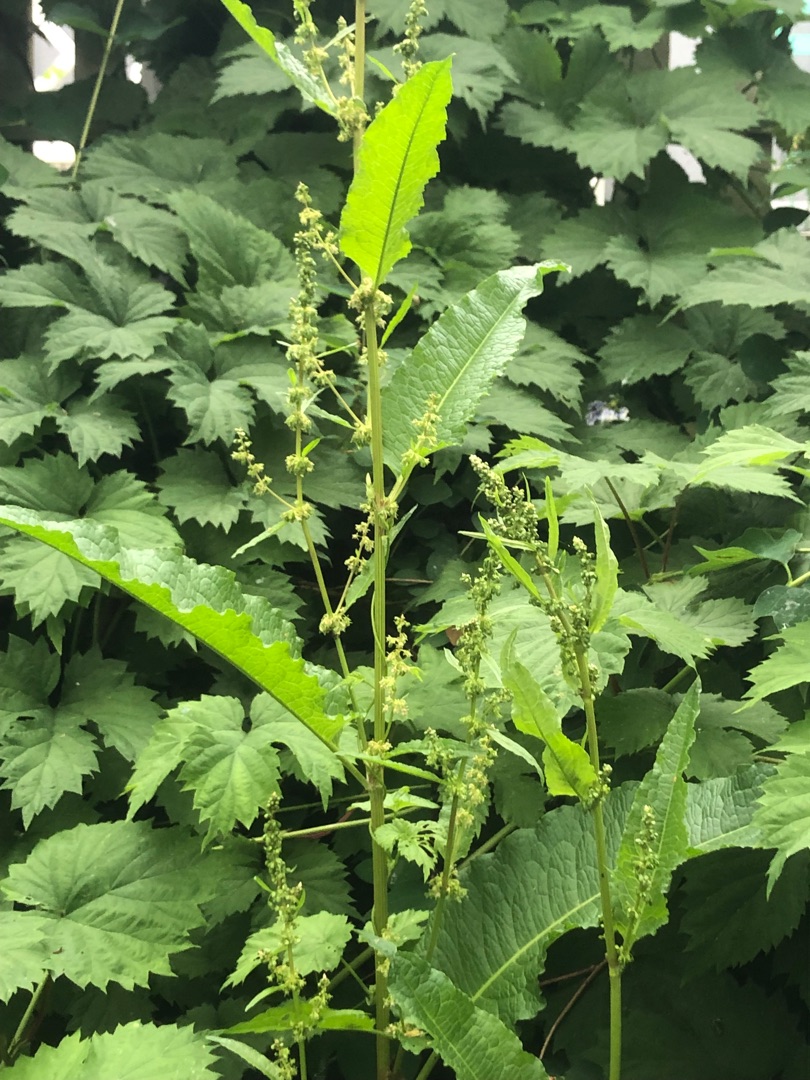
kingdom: Plantae
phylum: Tracheophyta
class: Magnoliopsida
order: Caryophyllales
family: Polygonaceae
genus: Rumex
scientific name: Rumex obtusifolius
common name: Butbladet skræppe
